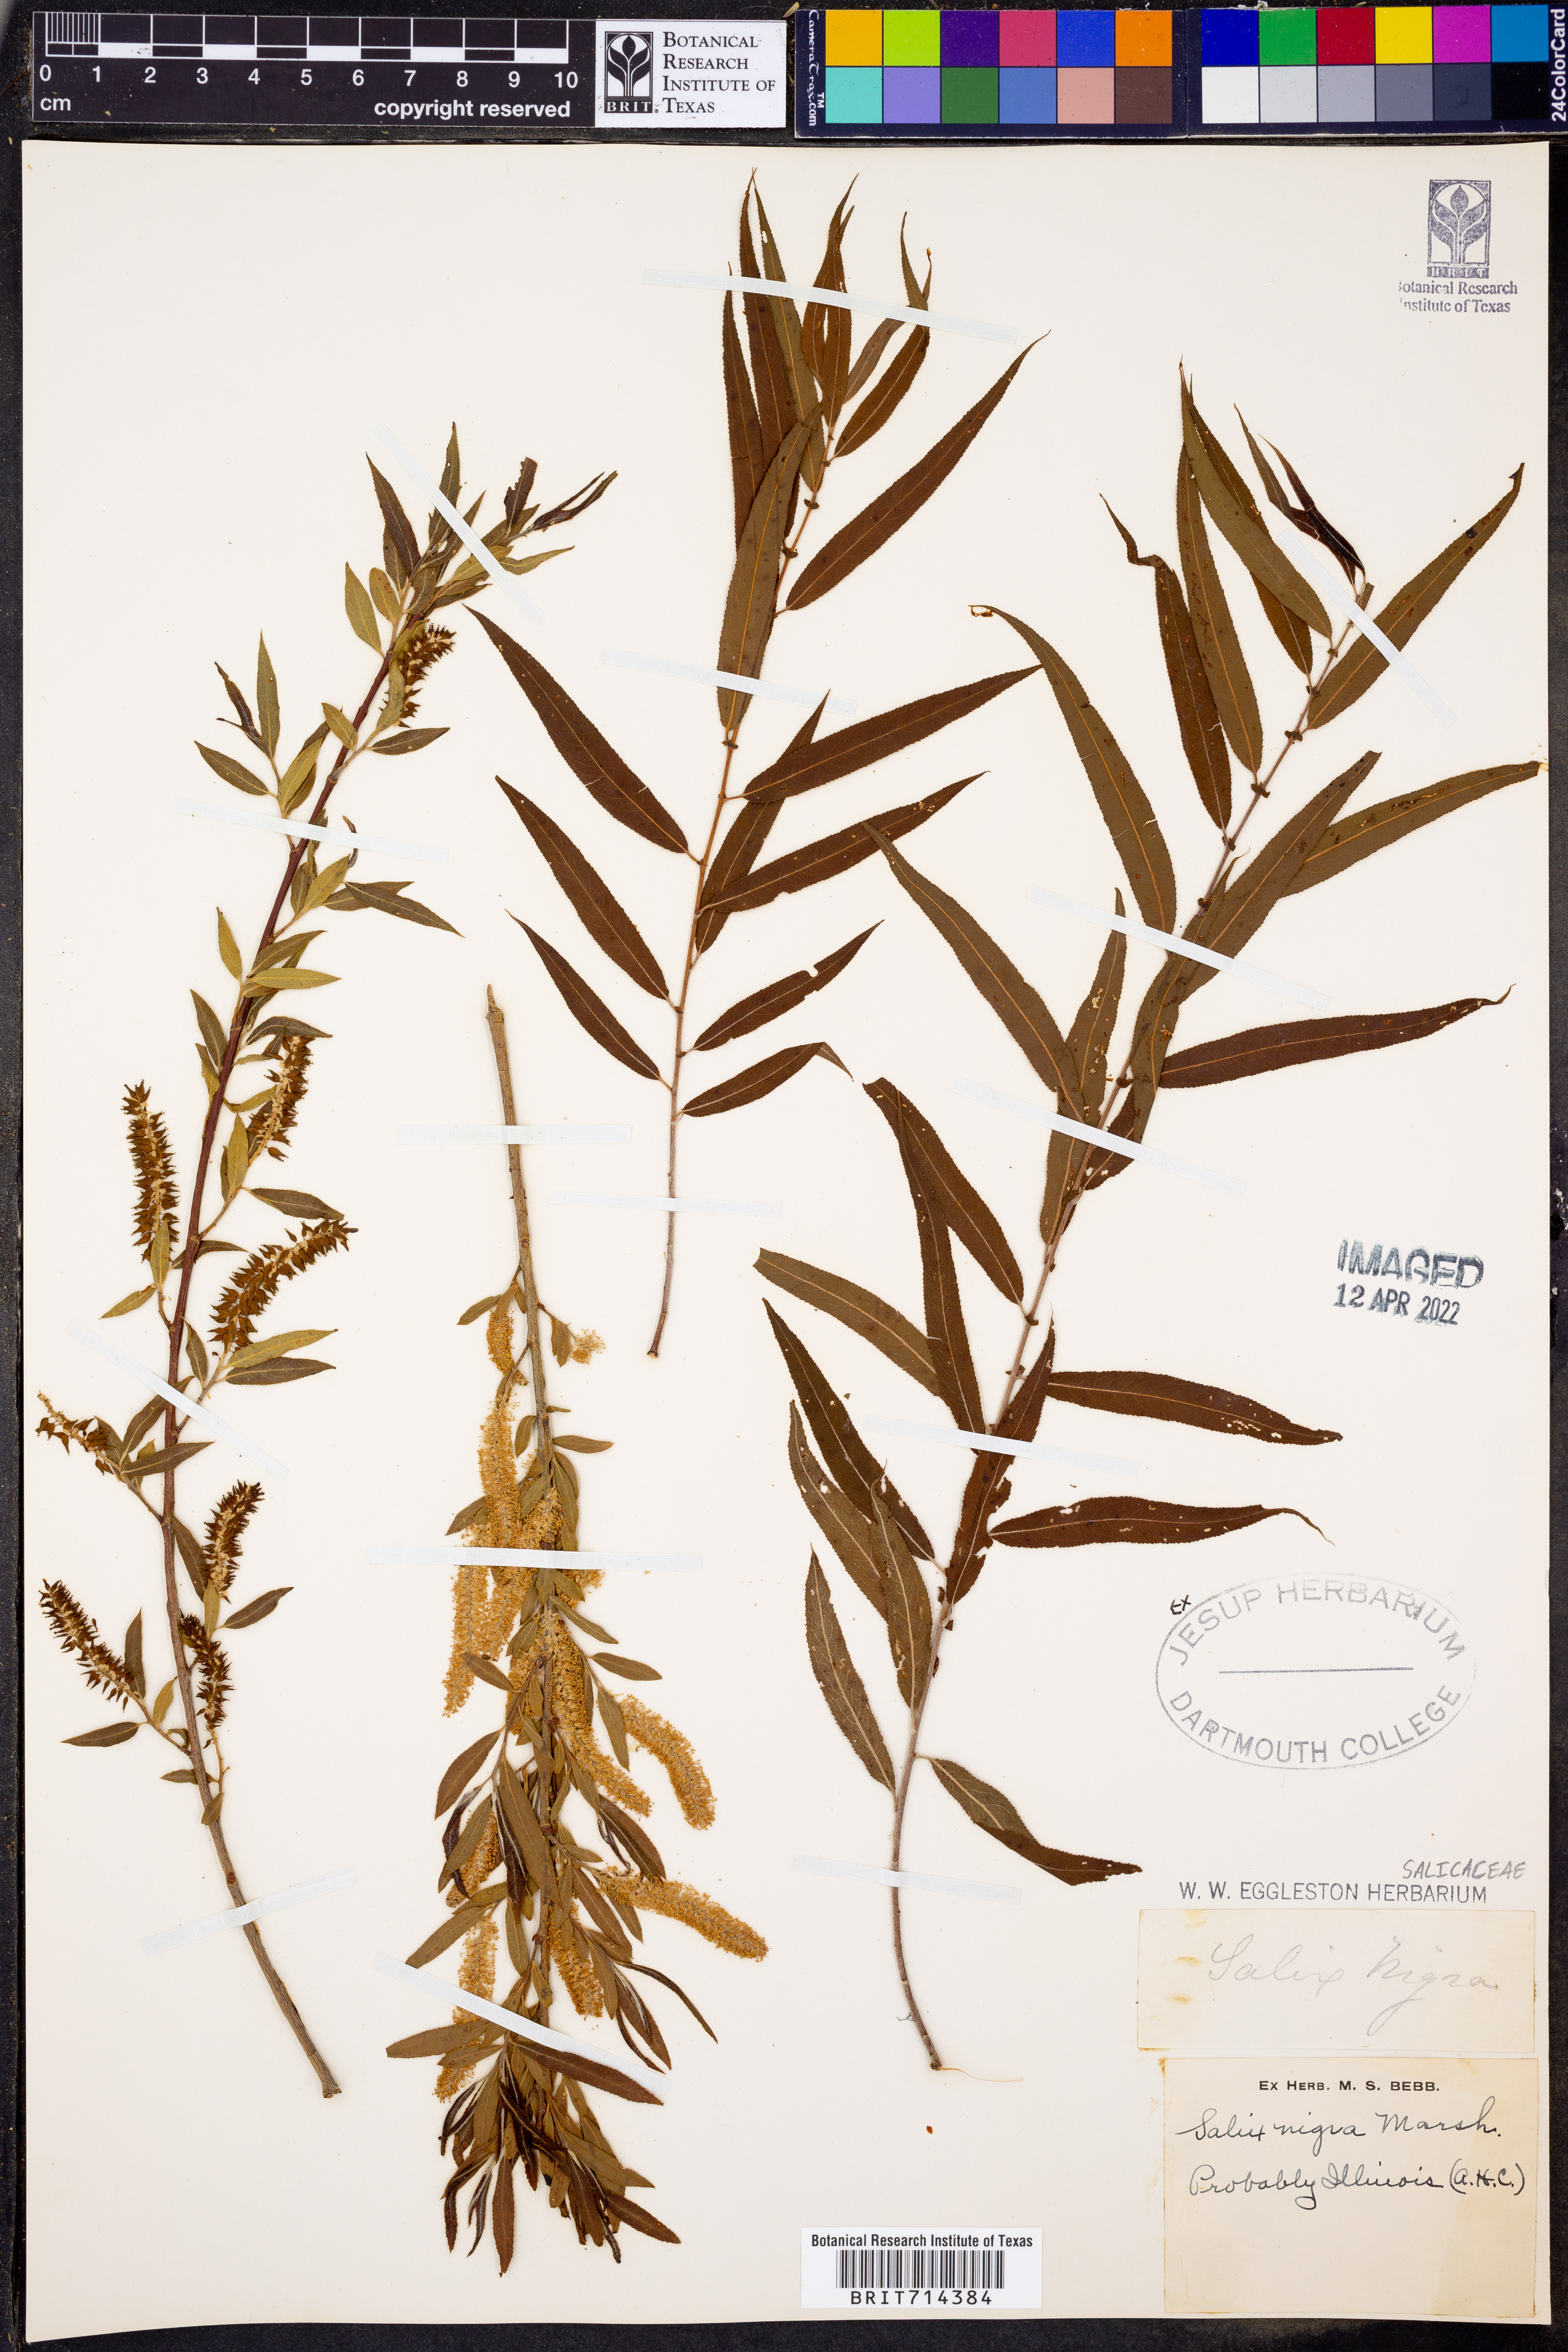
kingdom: Plantae
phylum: Tracheophyta
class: Magnoliopsida
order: Malpighiales
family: Salicaceae
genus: Salix
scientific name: Salix nigra
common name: Black willow
